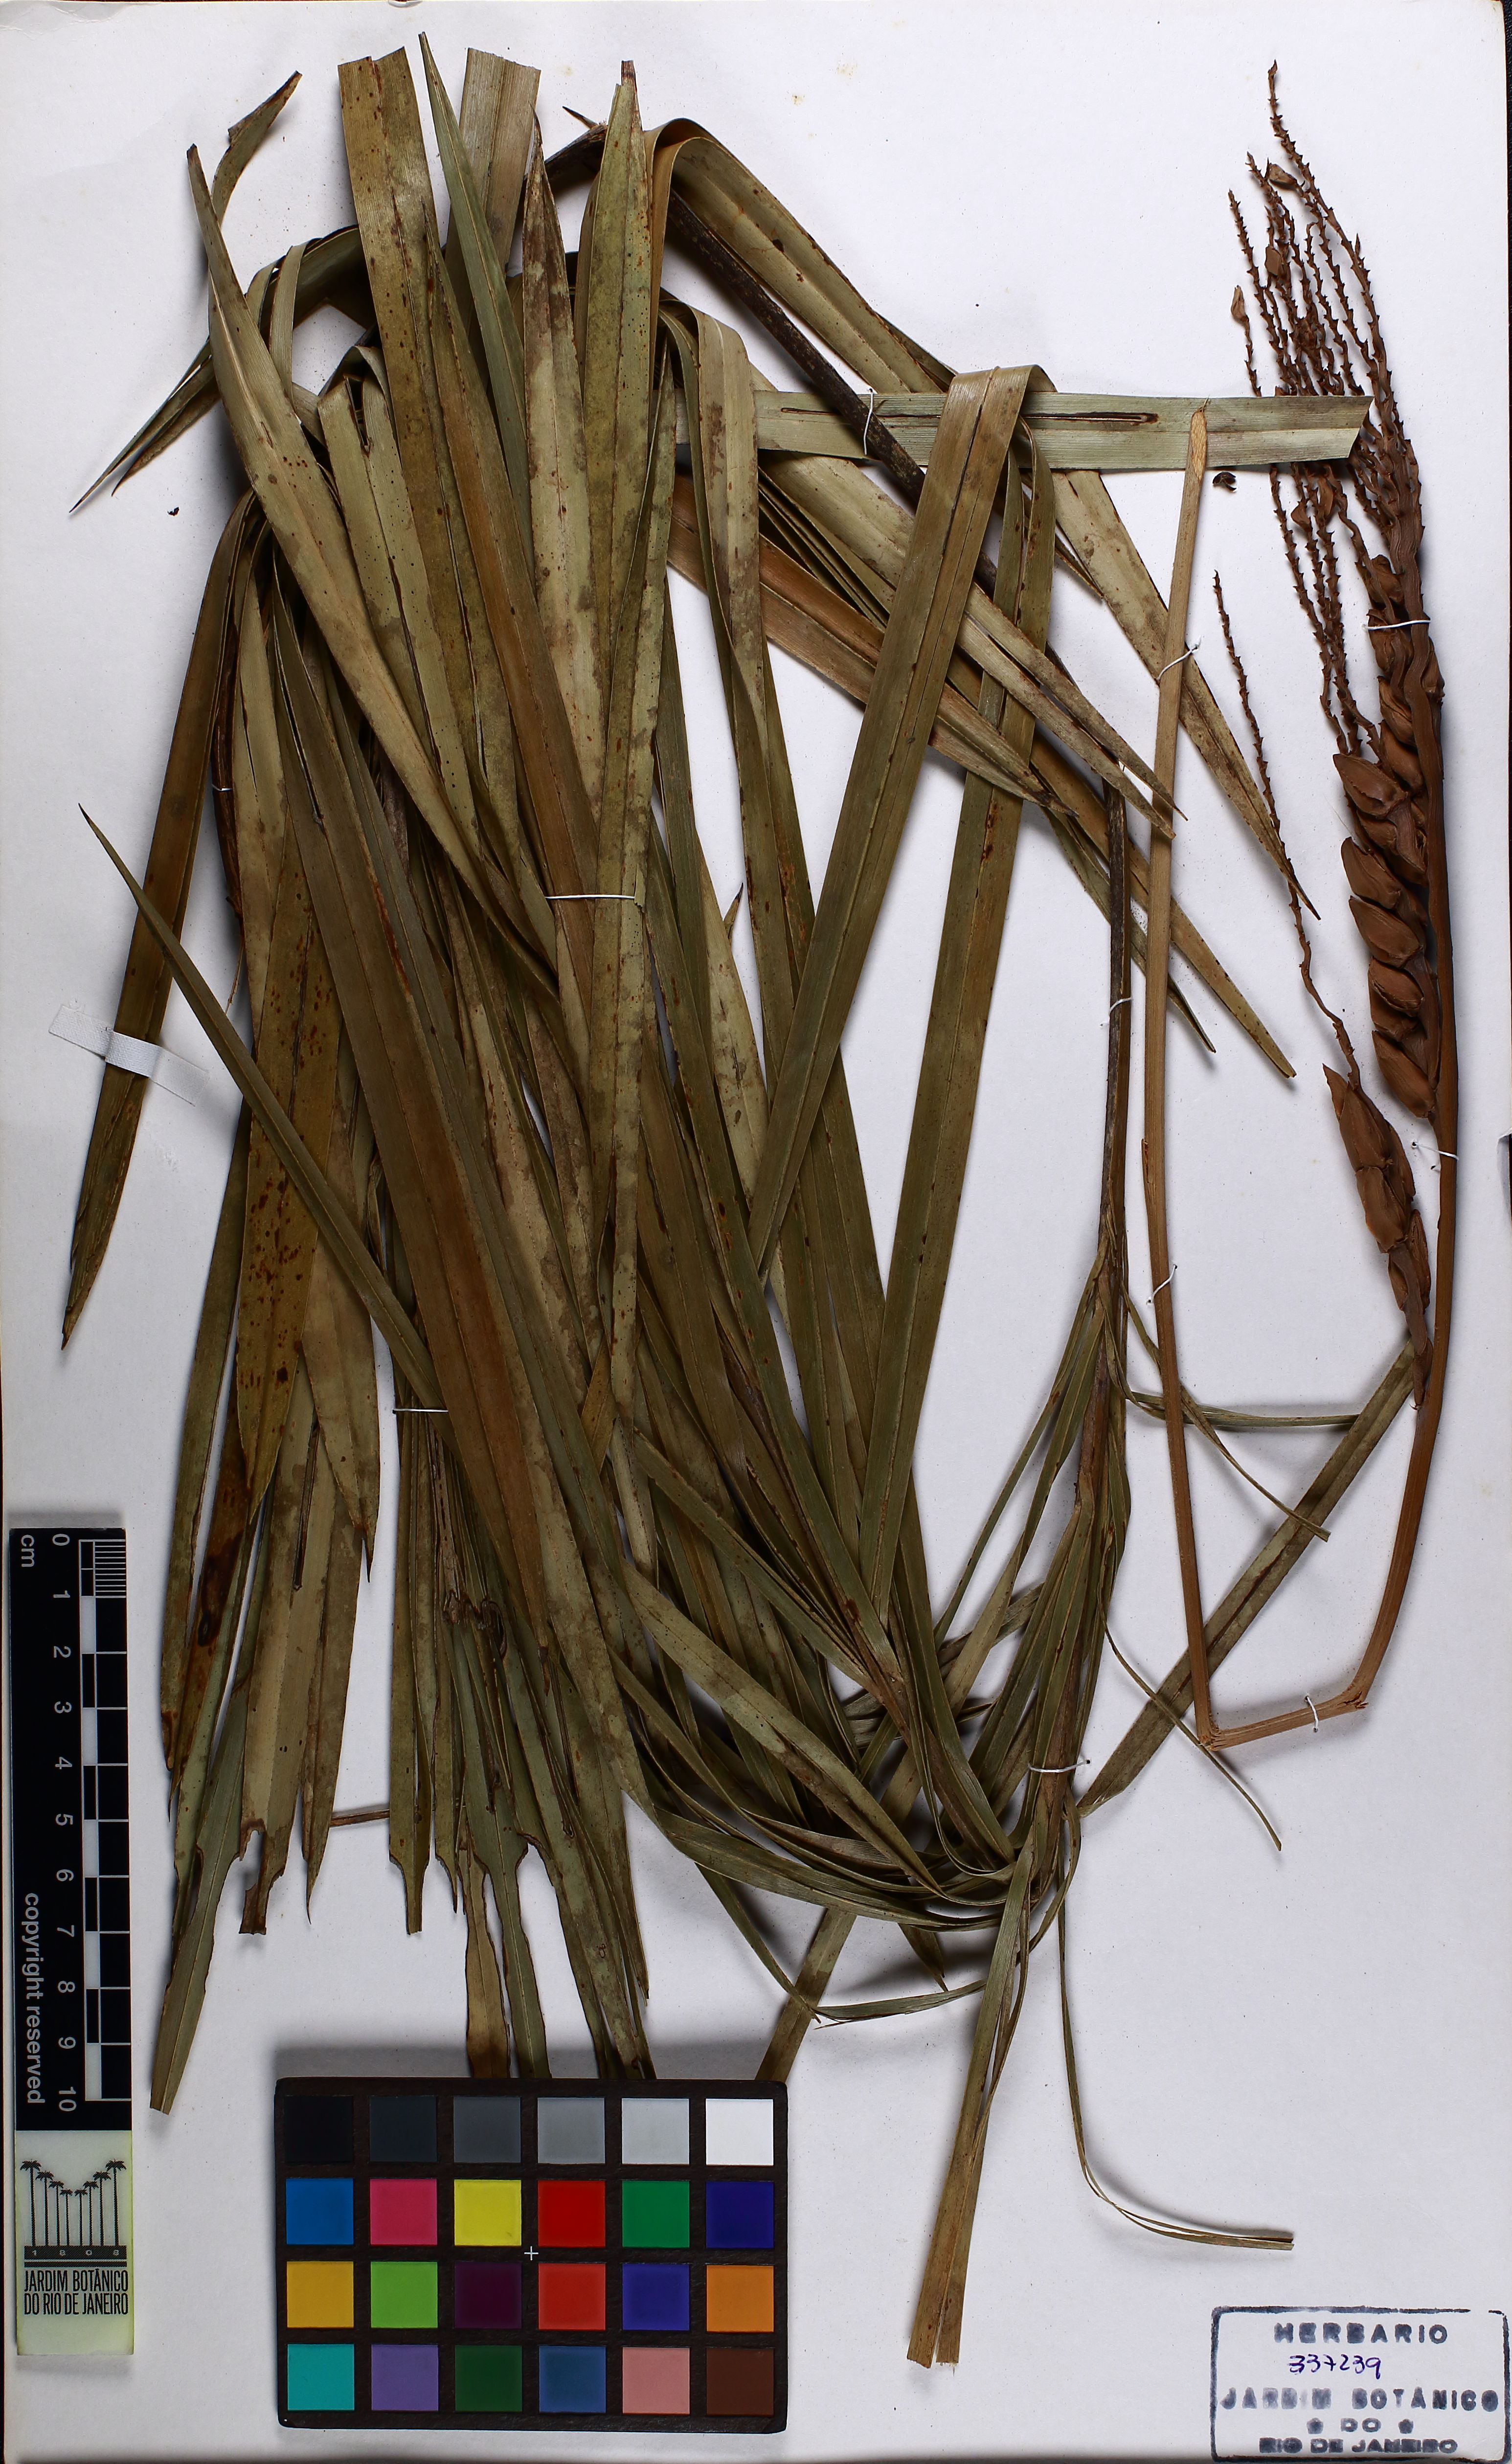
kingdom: Plantae
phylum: Tracheophyta
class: Liliopsida
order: Arecales
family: Arecaceae
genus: Syagrus
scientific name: Syagrus campestris
